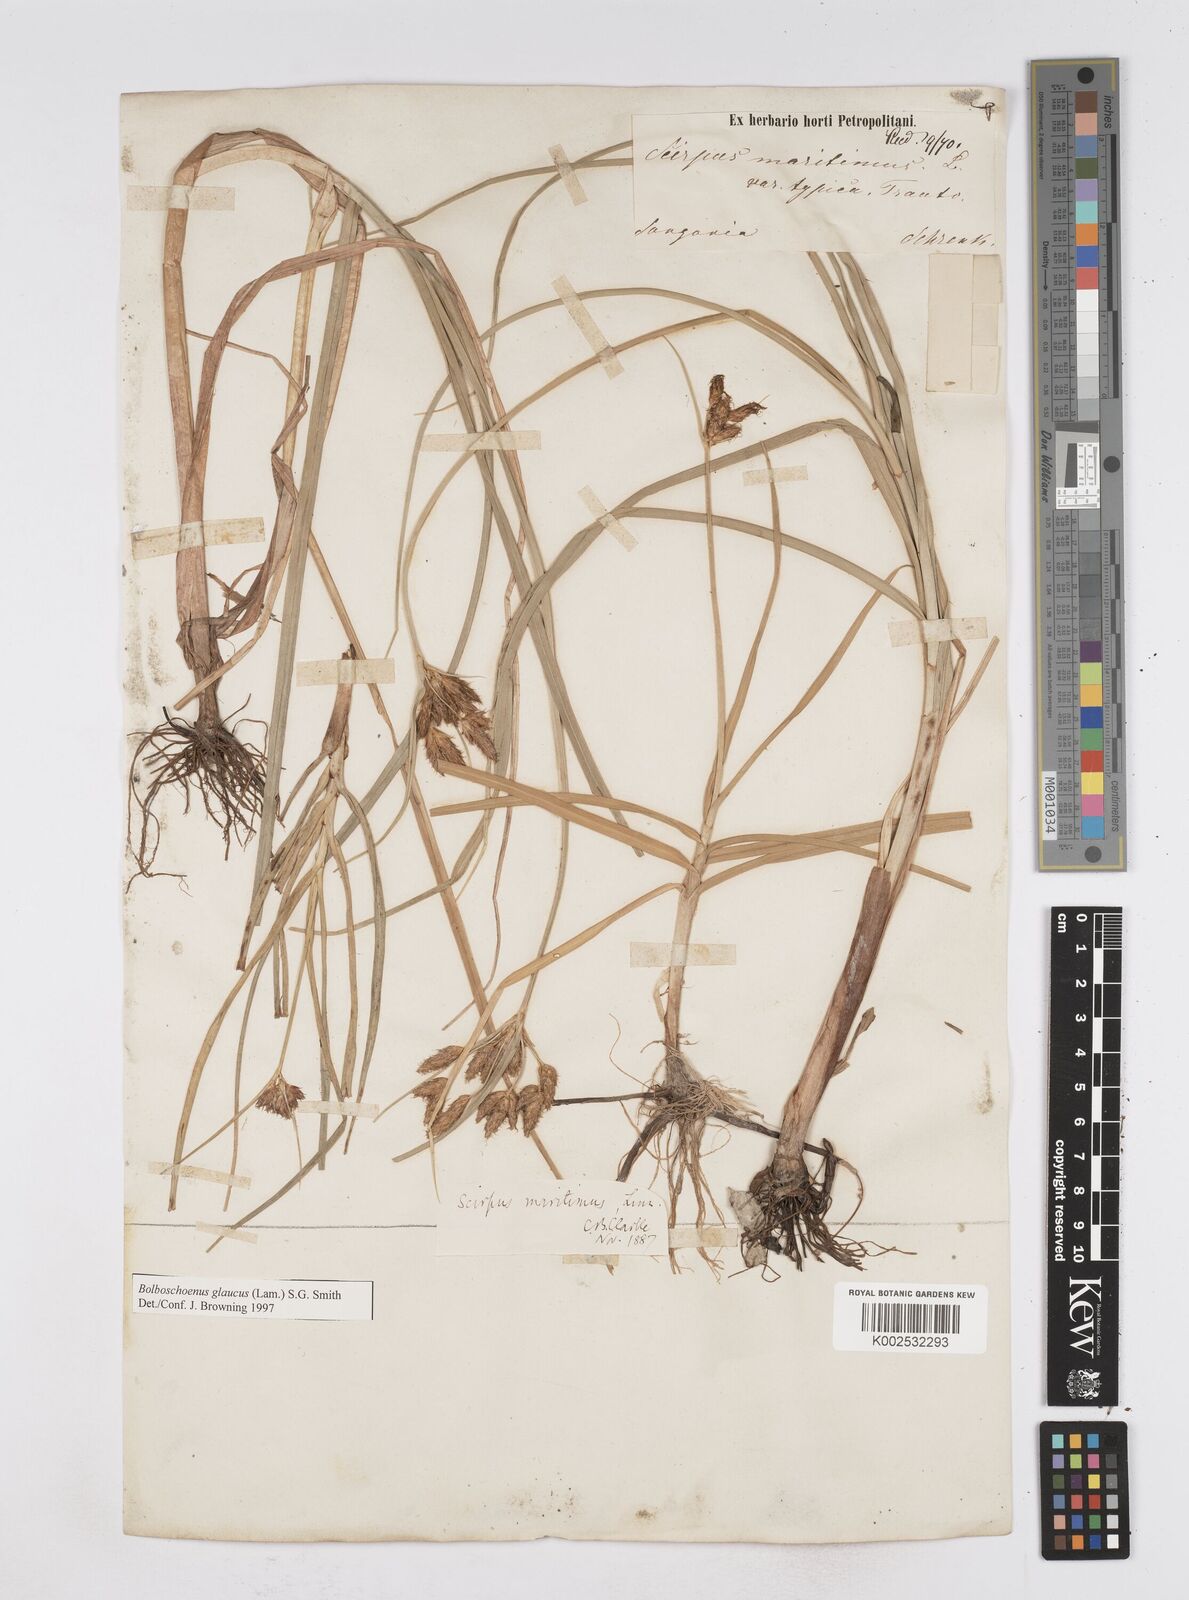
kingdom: Plantae
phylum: Tracheophyta
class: Liliopsida
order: Poales
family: Cyperaceae
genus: Bolboschoenus
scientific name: Bolboschoenus maritimus
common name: Sea club-rush
